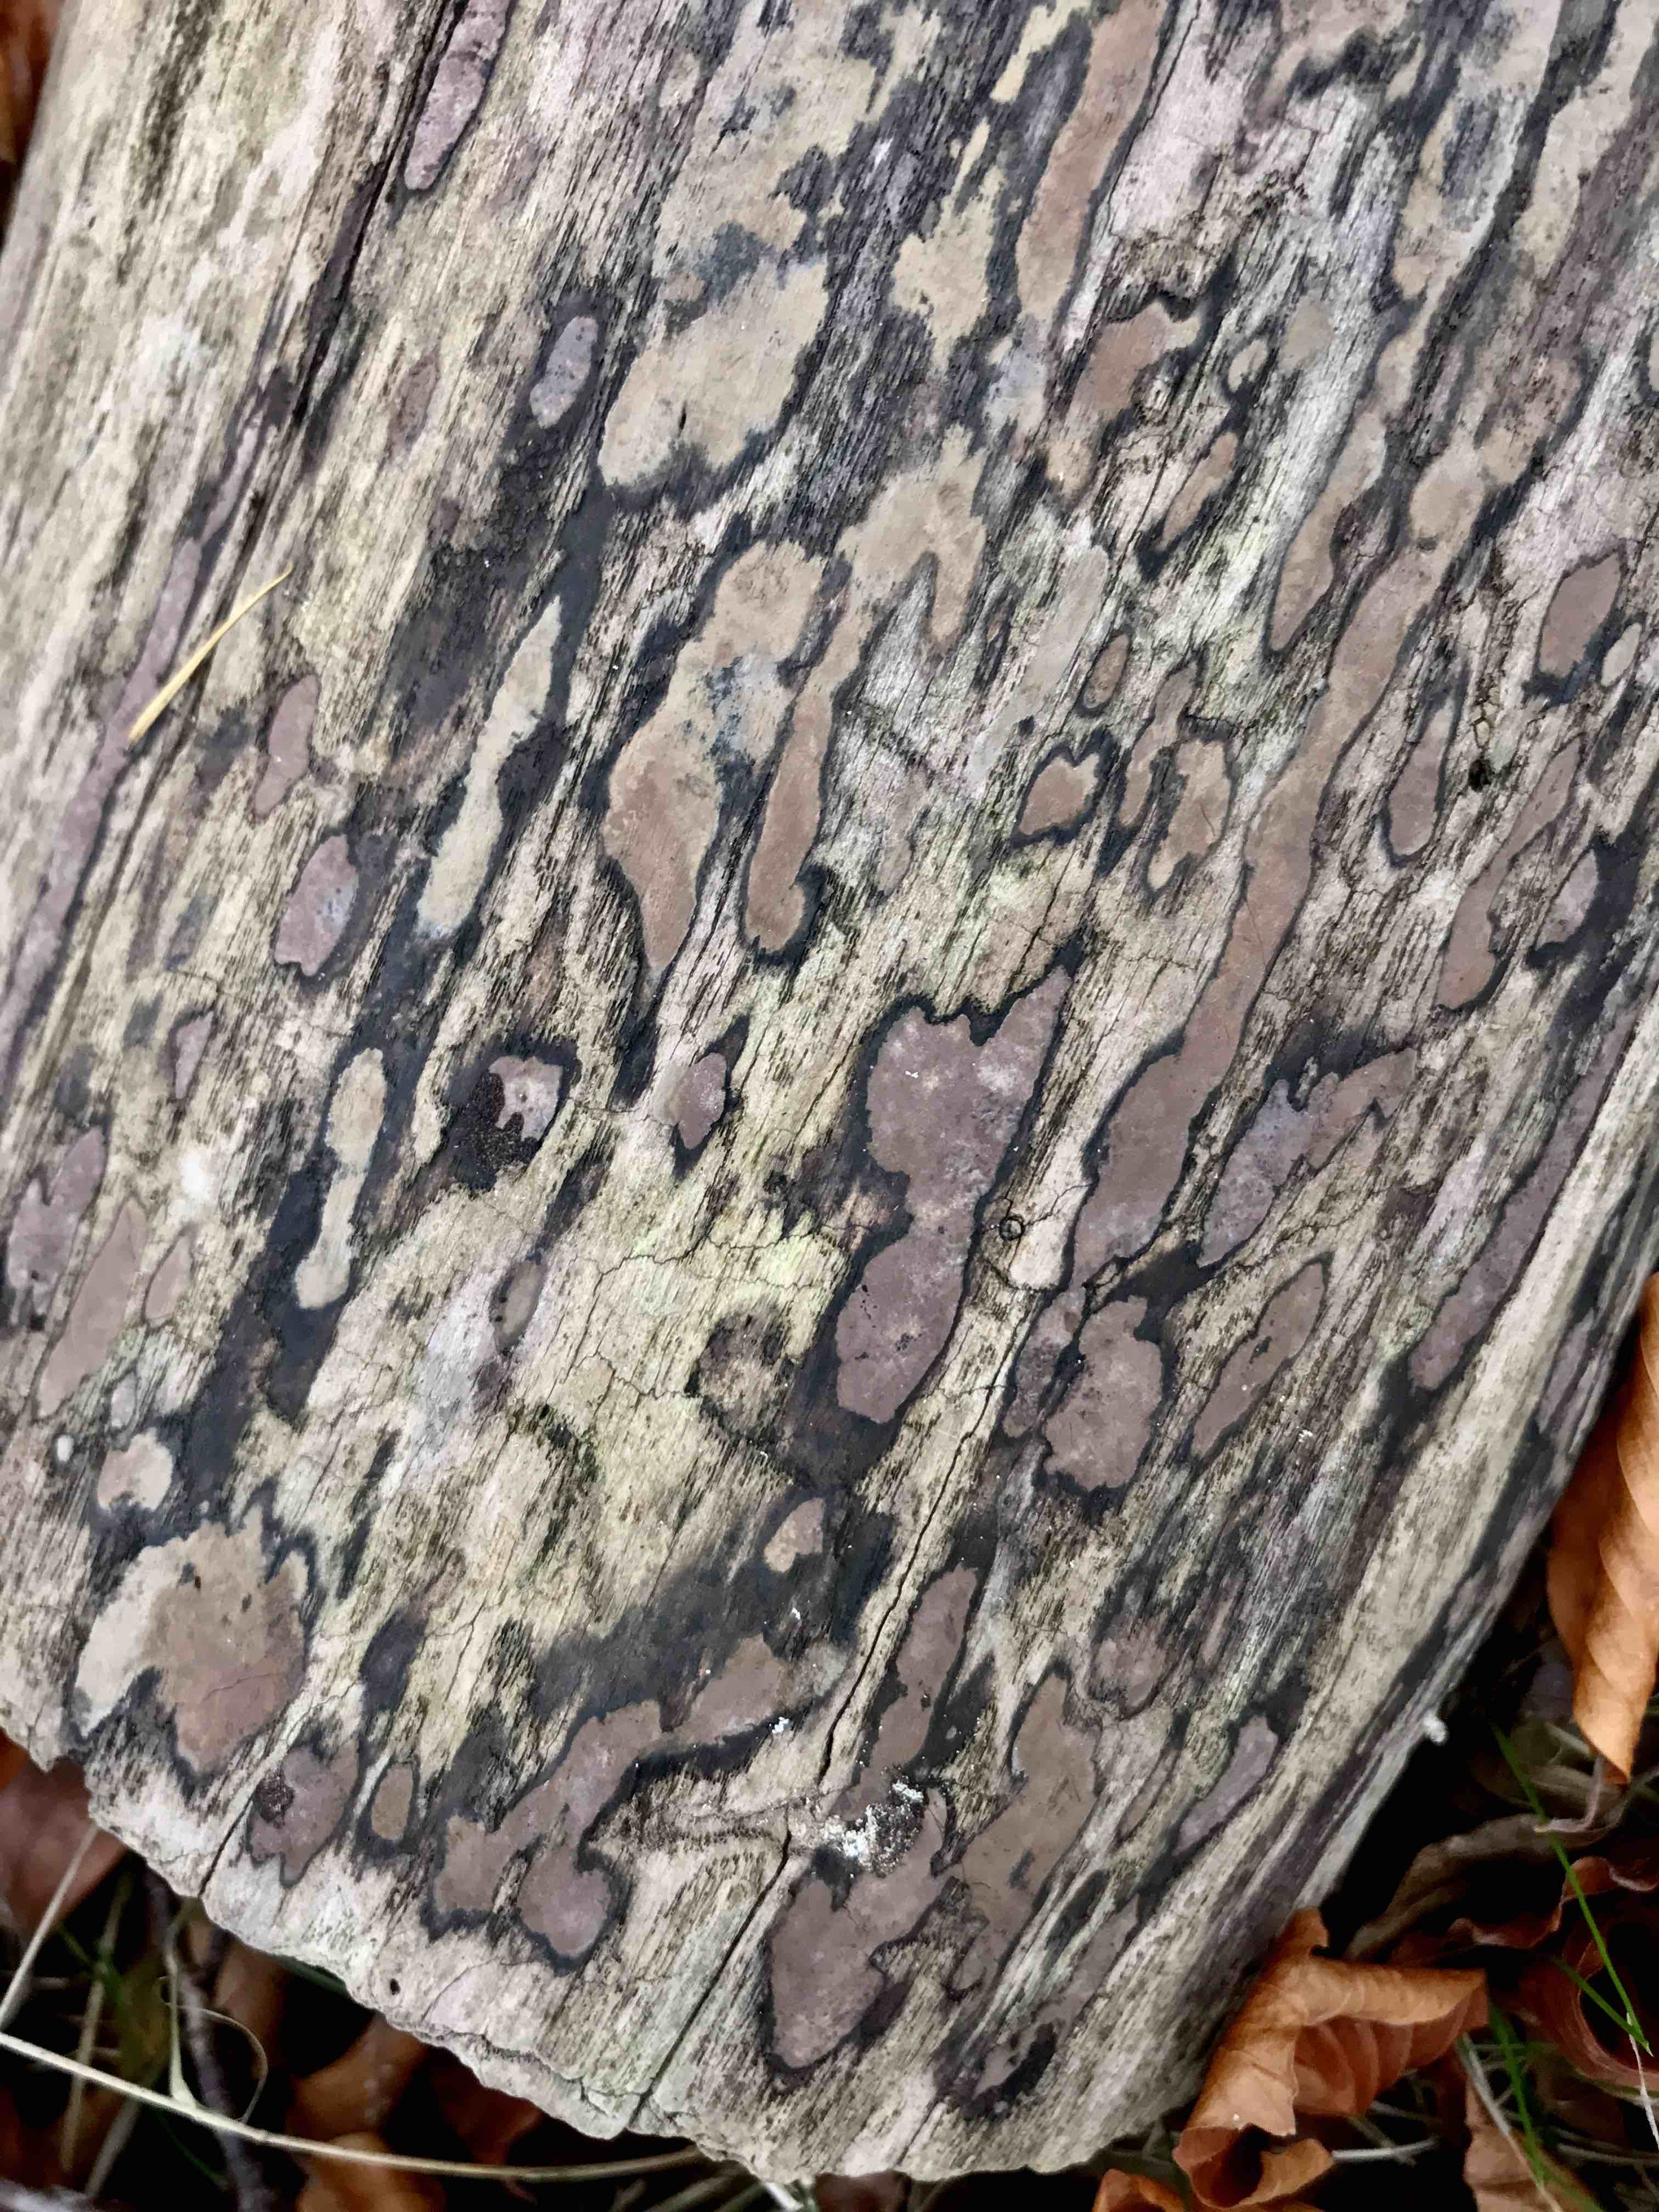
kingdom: Fungi
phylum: Ascomycota
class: Sordariomycetes
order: Xylariales
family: Hypoxylaceae
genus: Hypoxylon
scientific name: Hypoxylon petriniae
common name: nedsænket kulbær
